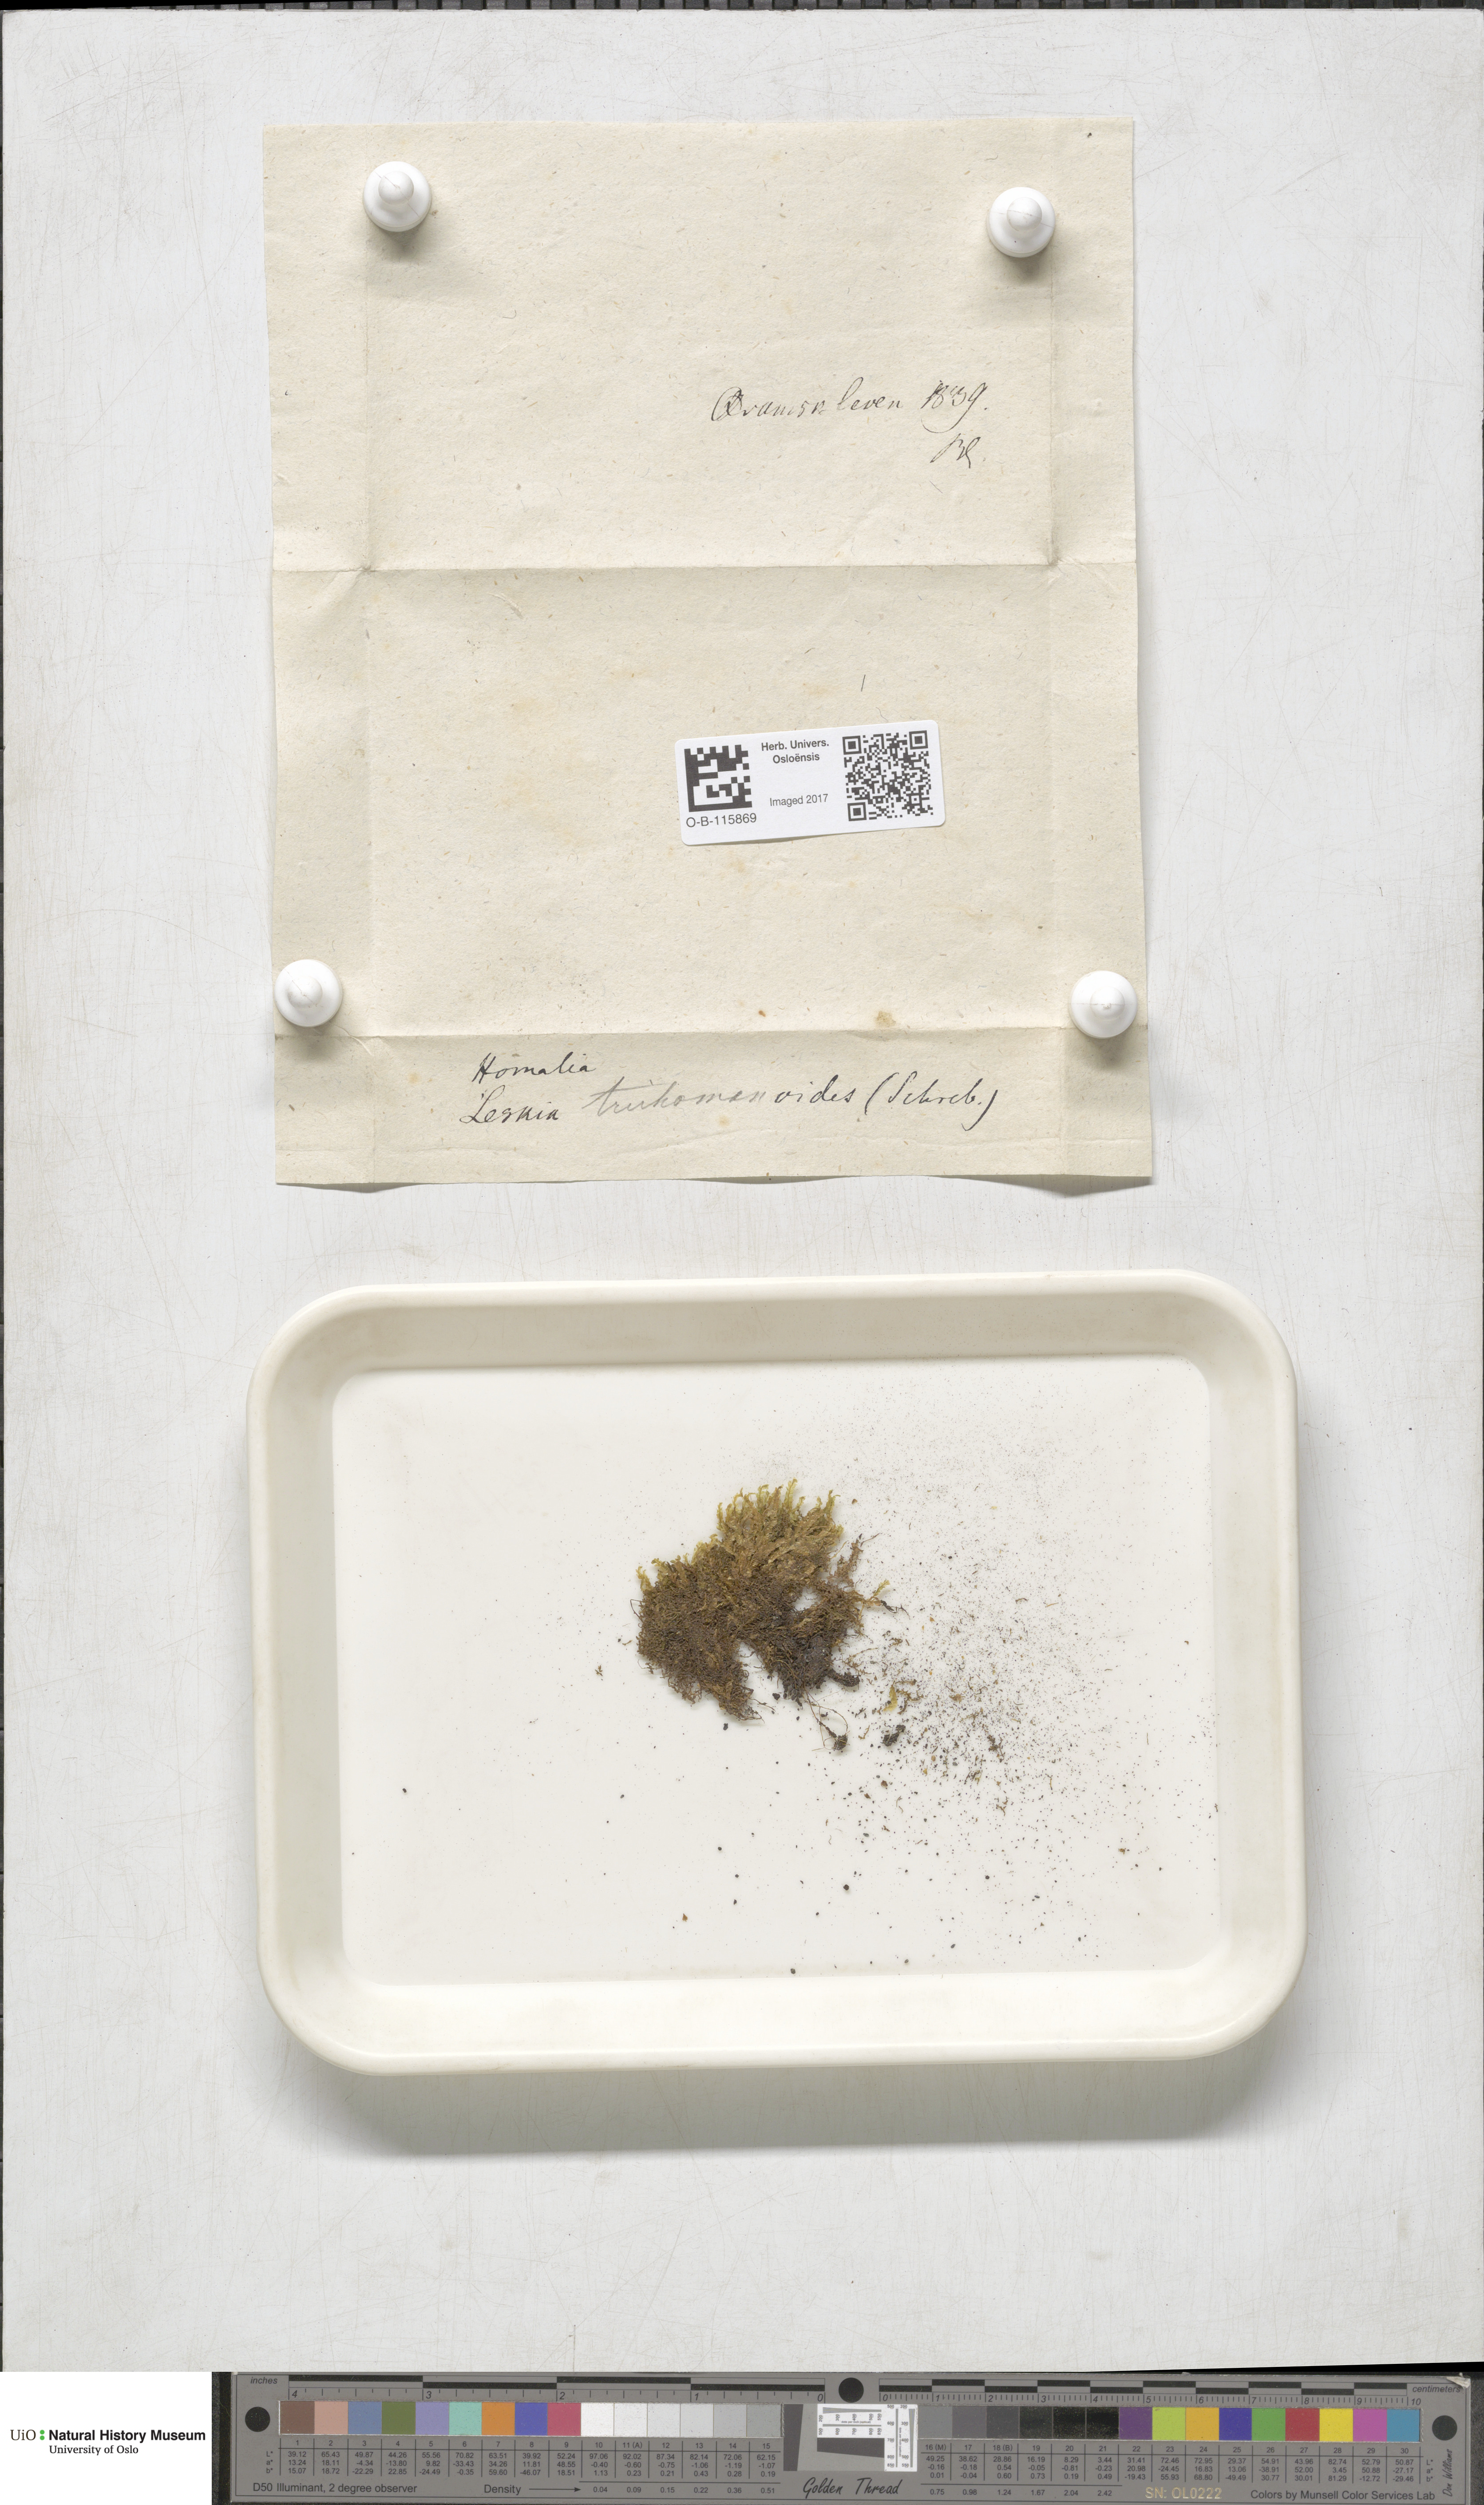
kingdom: Plantae
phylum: Bryophyta
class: Bryopsida
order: Hypnales
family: Neckeraceae
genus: Homalia
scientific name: Homalia trichomanoides
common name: Lime homalia moss
